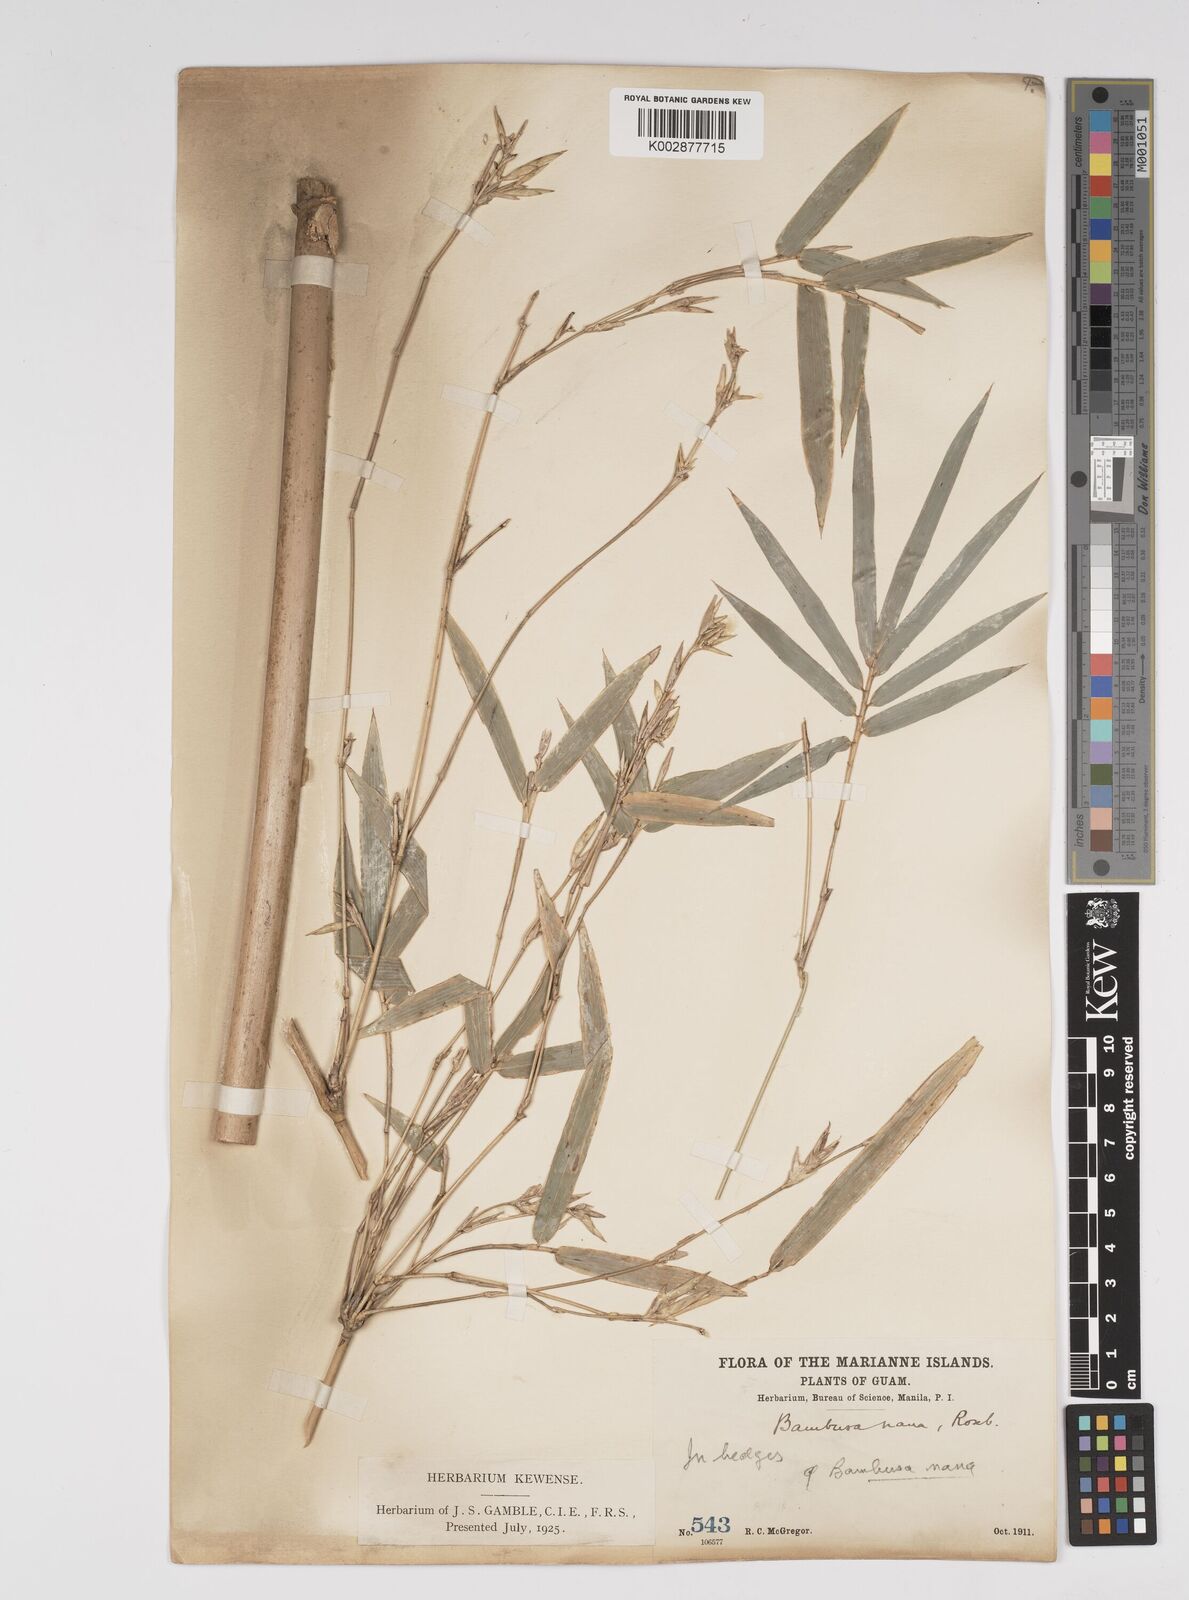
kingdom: Plantae
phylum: Tracheophyta
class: Liliopsida
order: Poales
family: Poaceae
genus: Bambusa
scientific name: Bambusa multiplex
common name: Hedge bamboo
